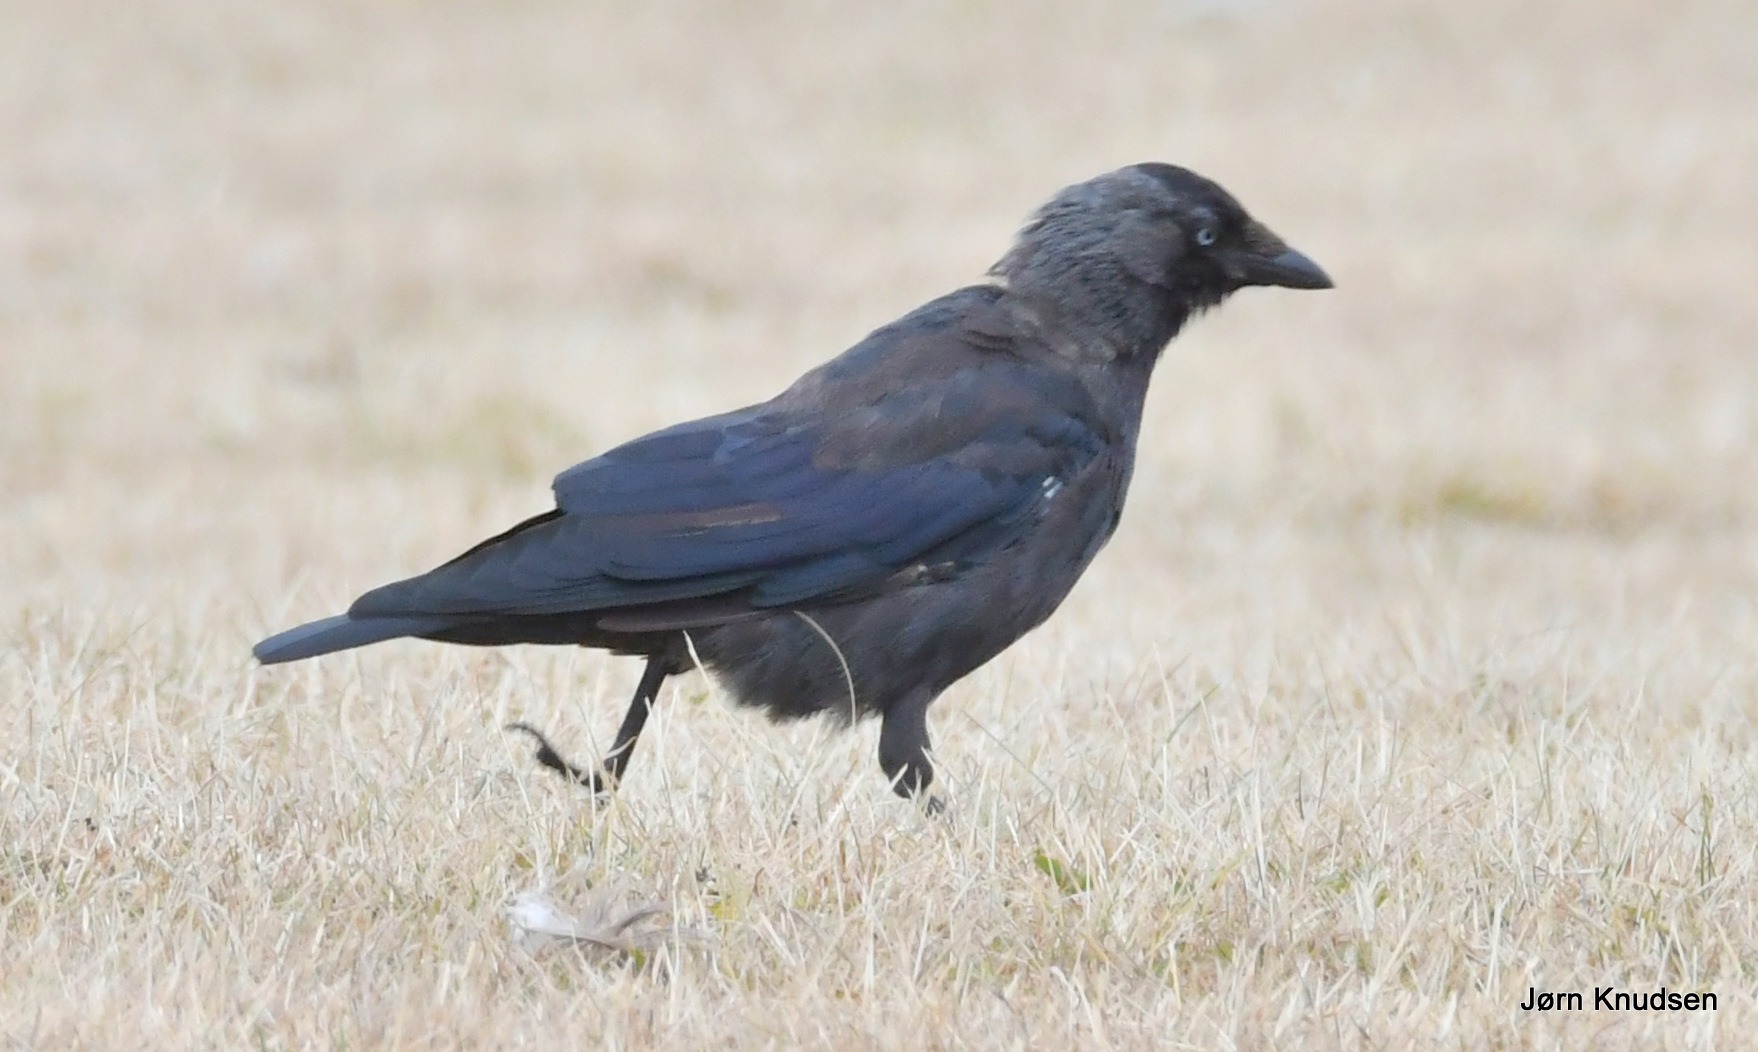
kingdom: Animalia
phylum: Chordata
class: Aves
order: Passeriformes
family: Corvidae
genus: Coloeus
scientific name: Coloeus monedula
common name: Allike
